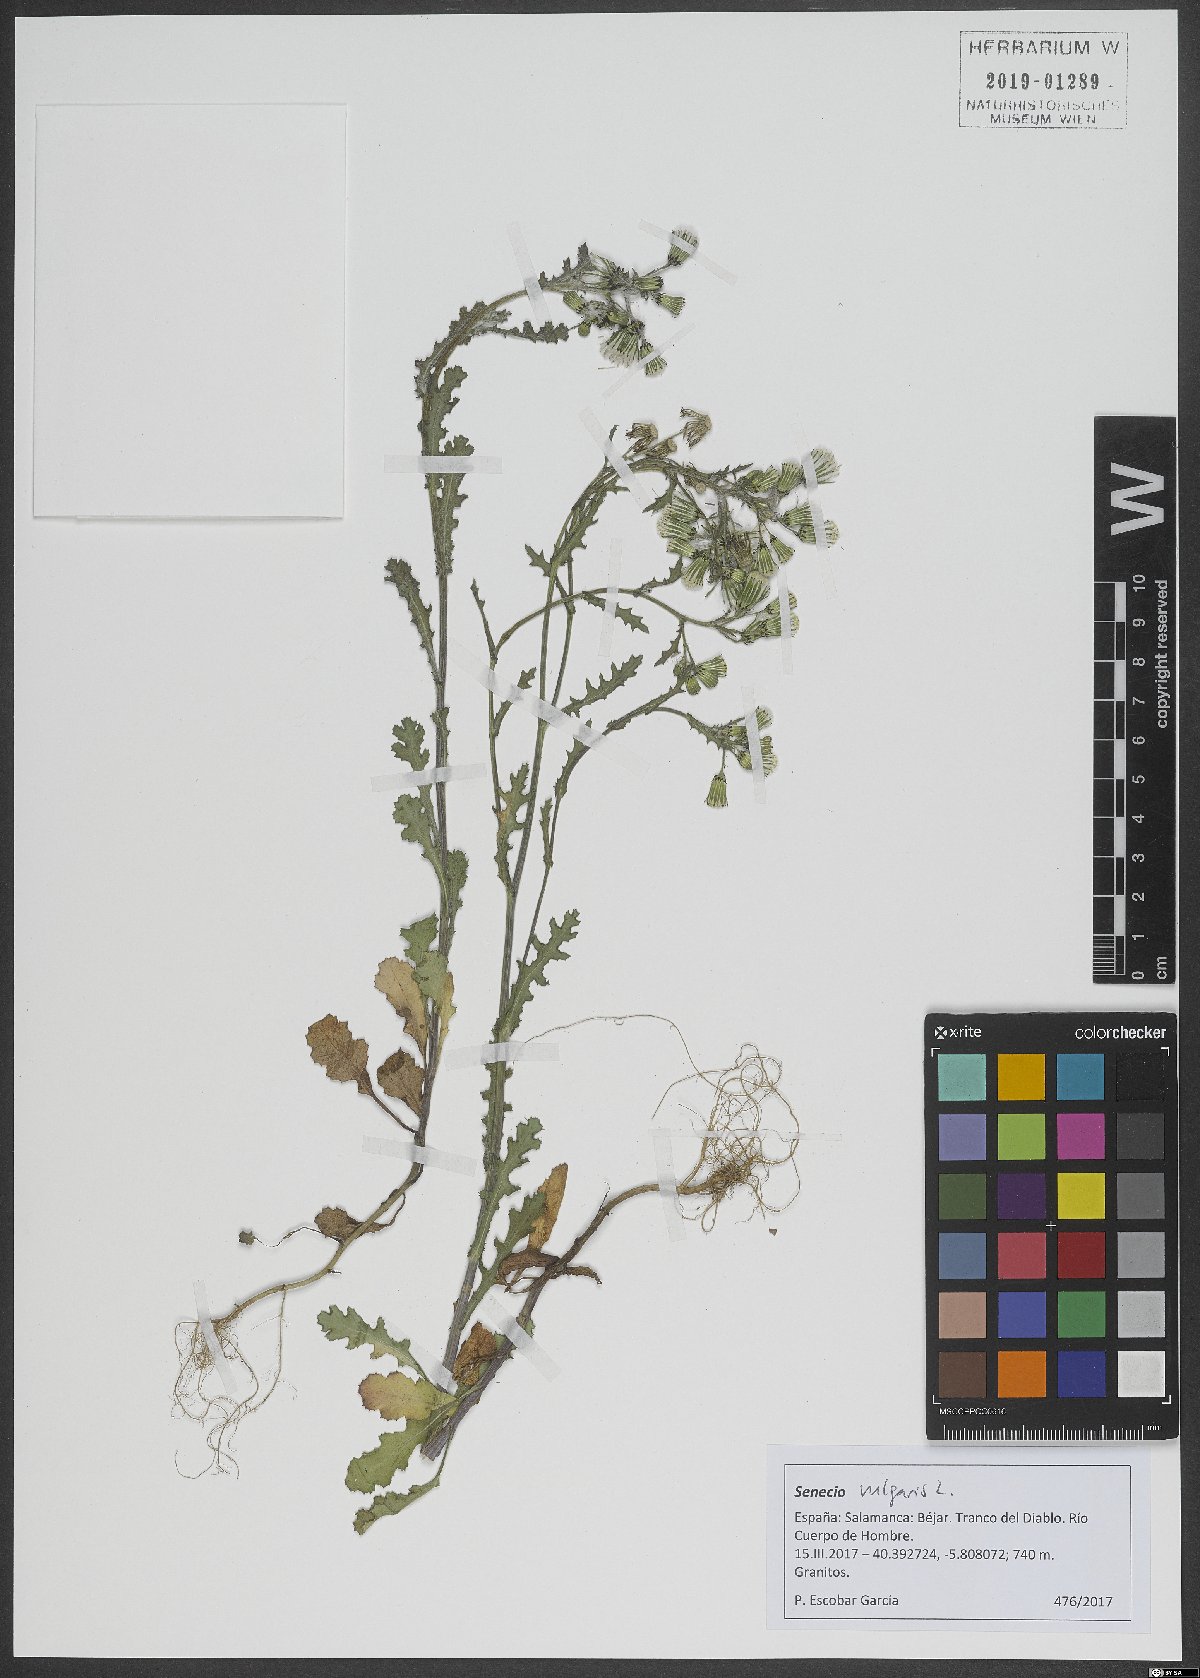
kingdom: Plantae
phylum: Tracheophyta
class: Magnoliopsida
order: Asterales
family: Asteraceae
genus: Senecio
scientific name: Senecio vulgaris
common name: Old-man-in-the-spring
